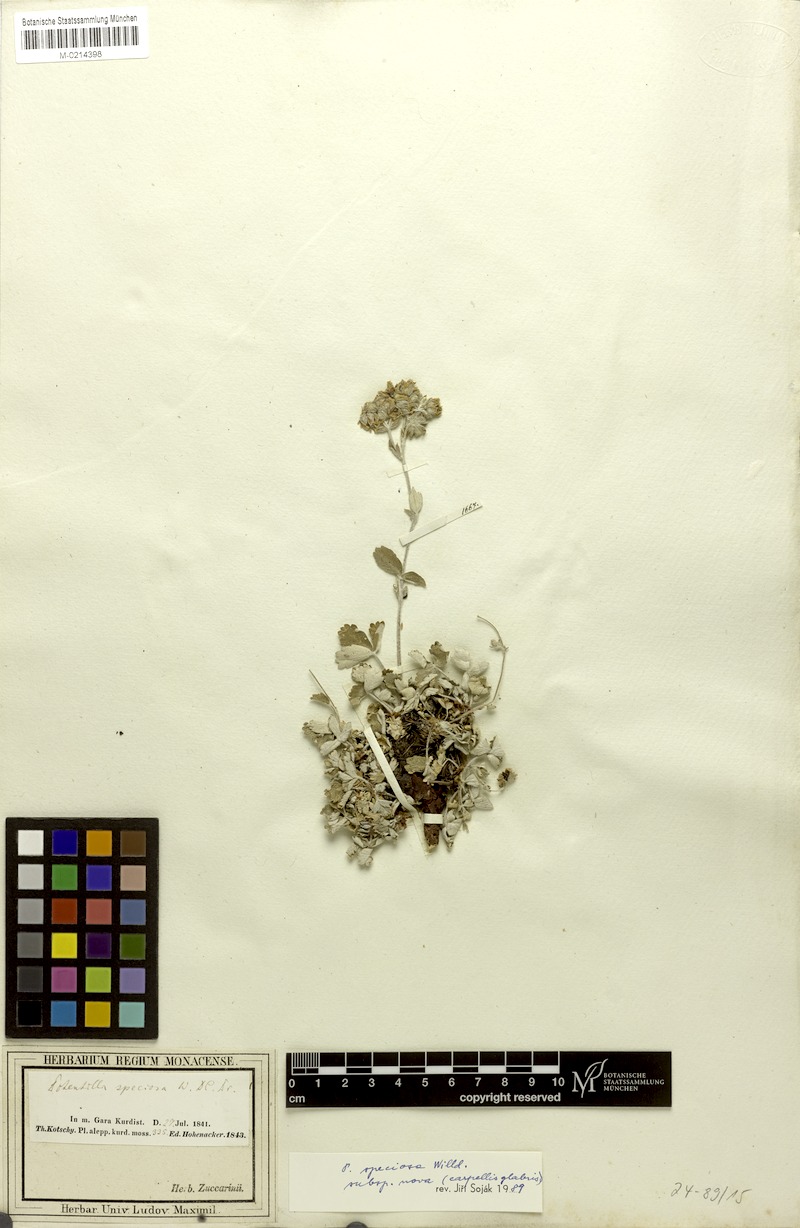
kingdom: Plantae
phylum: Tracheophyta
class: Magnoliopsida
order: Rosales
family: Rosaceae
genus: Potentilla
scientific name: Potentilla speciosa
